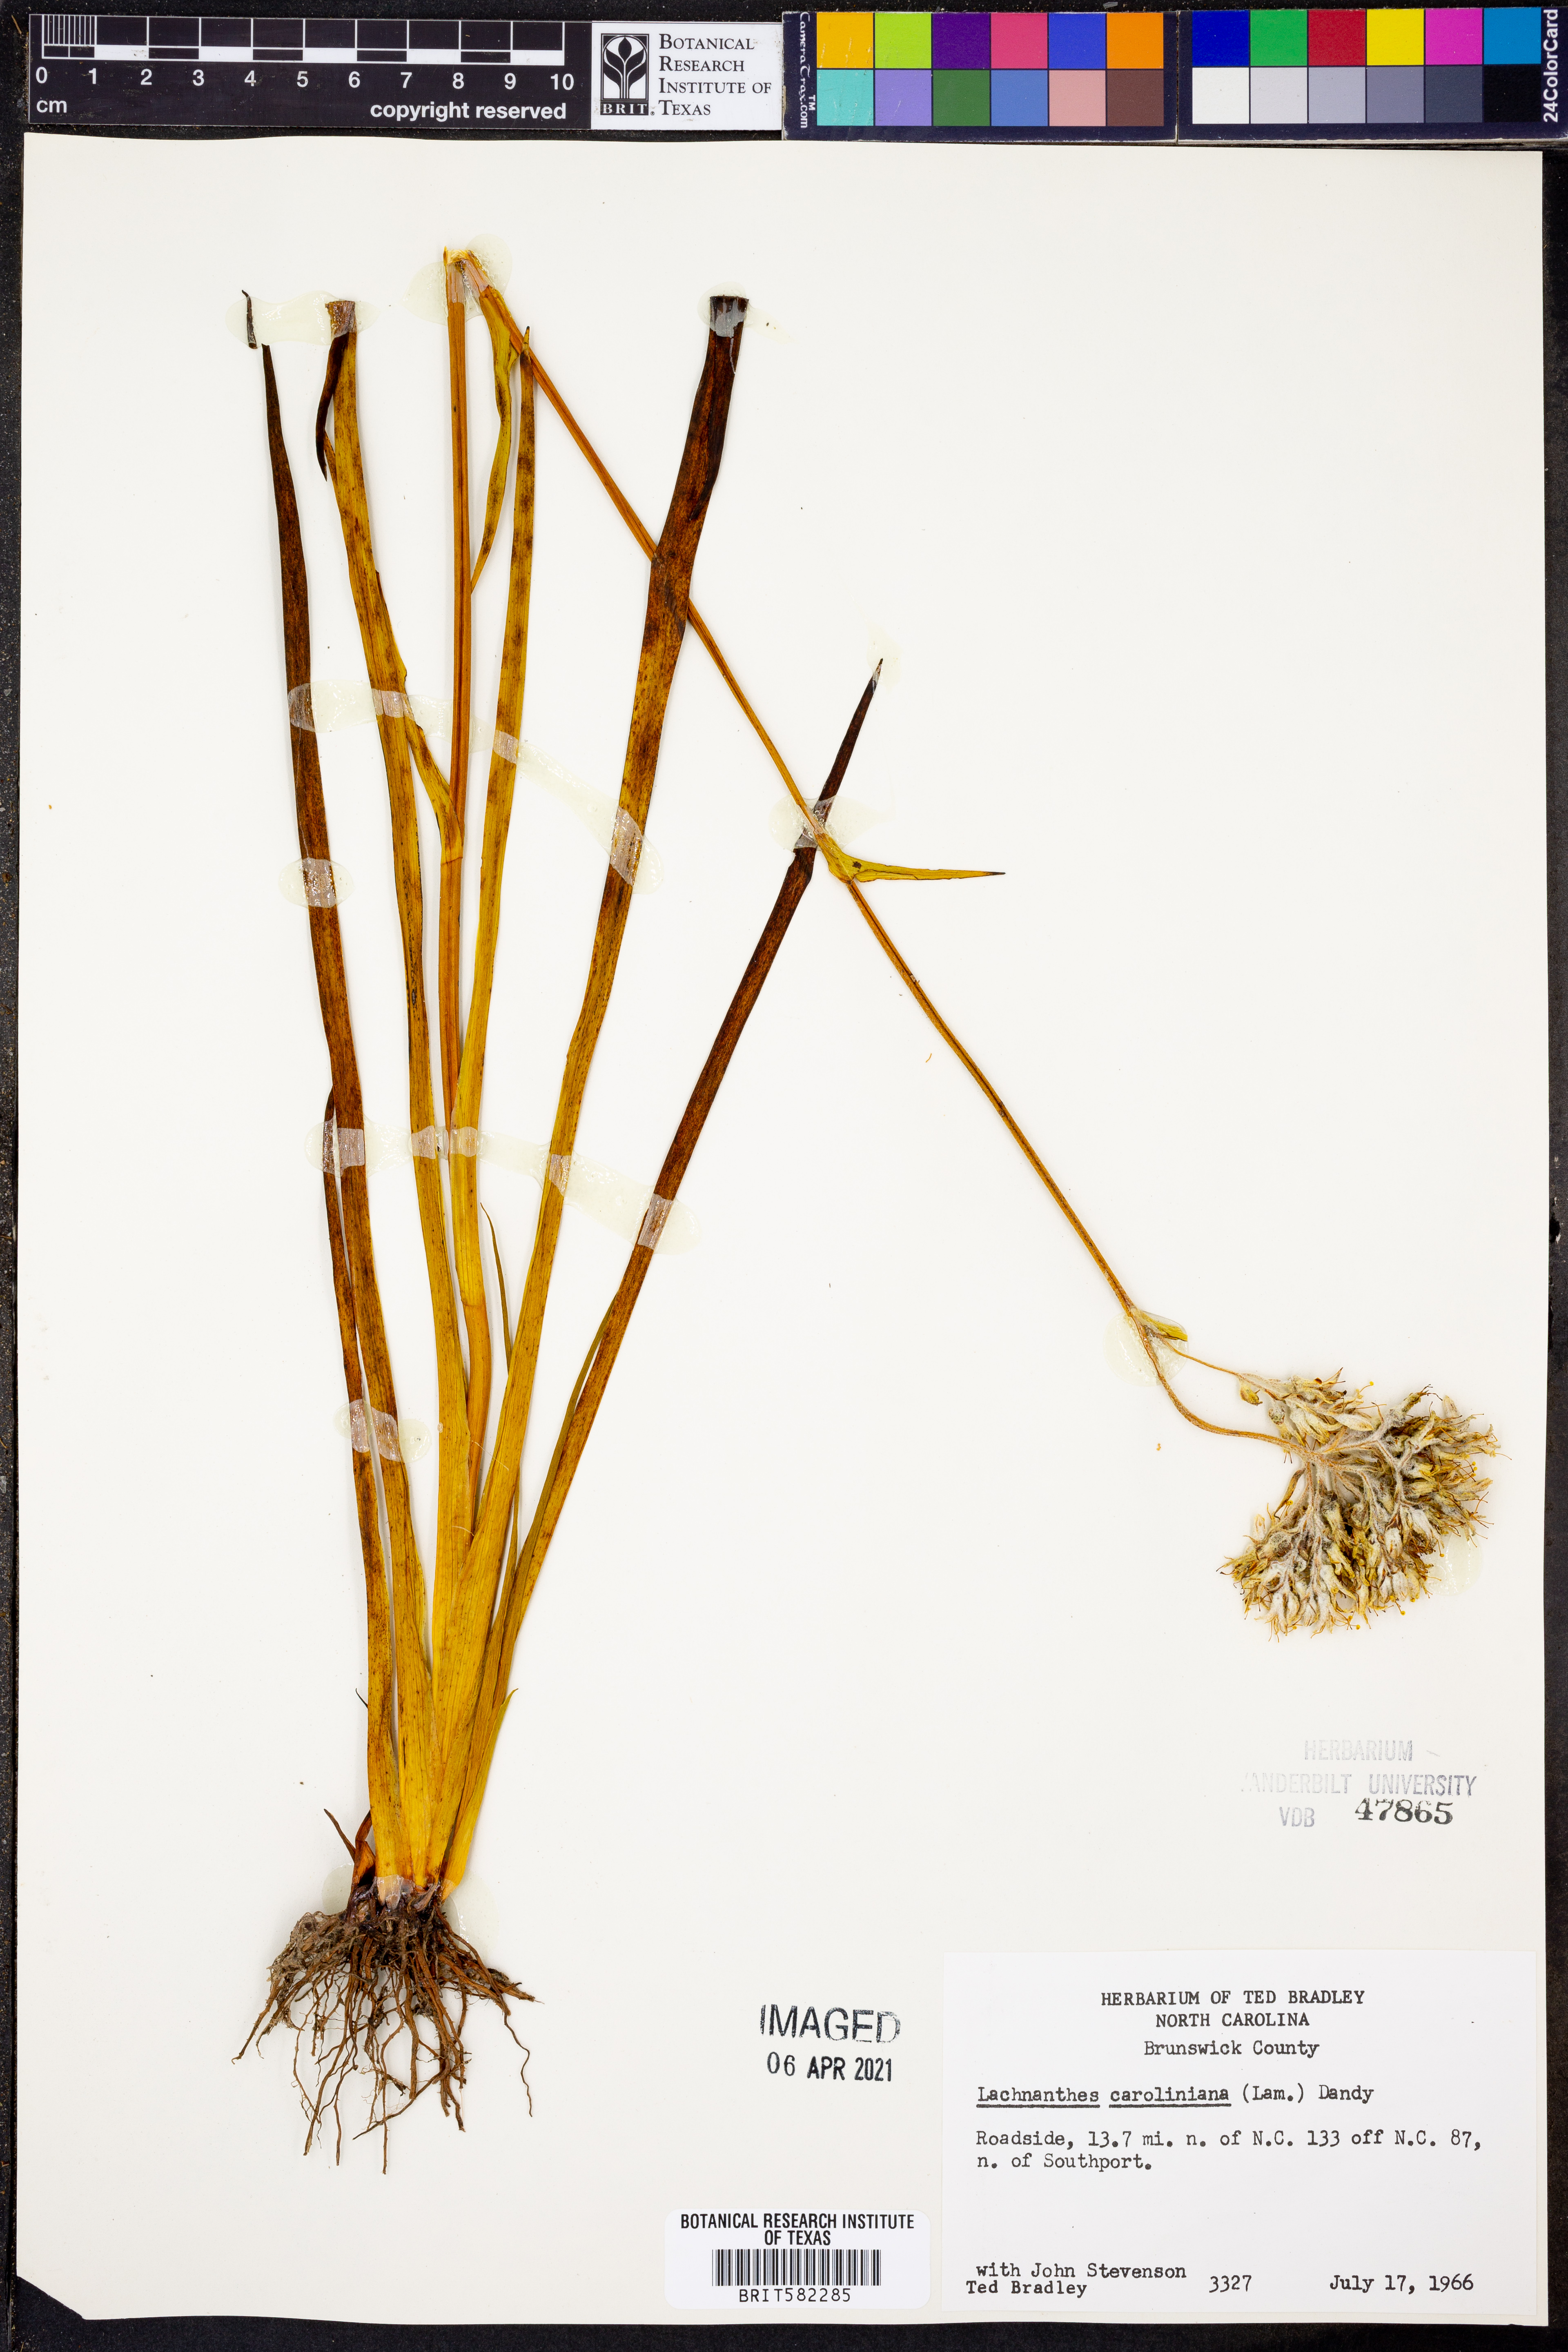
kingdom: Plantae
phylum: Tracheophyta
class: Liliopsida
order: Commelinales
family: Haemodoraceae
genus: Lachnanthes
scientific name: Lachnanthes caroliniana
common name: Carolina redroot
